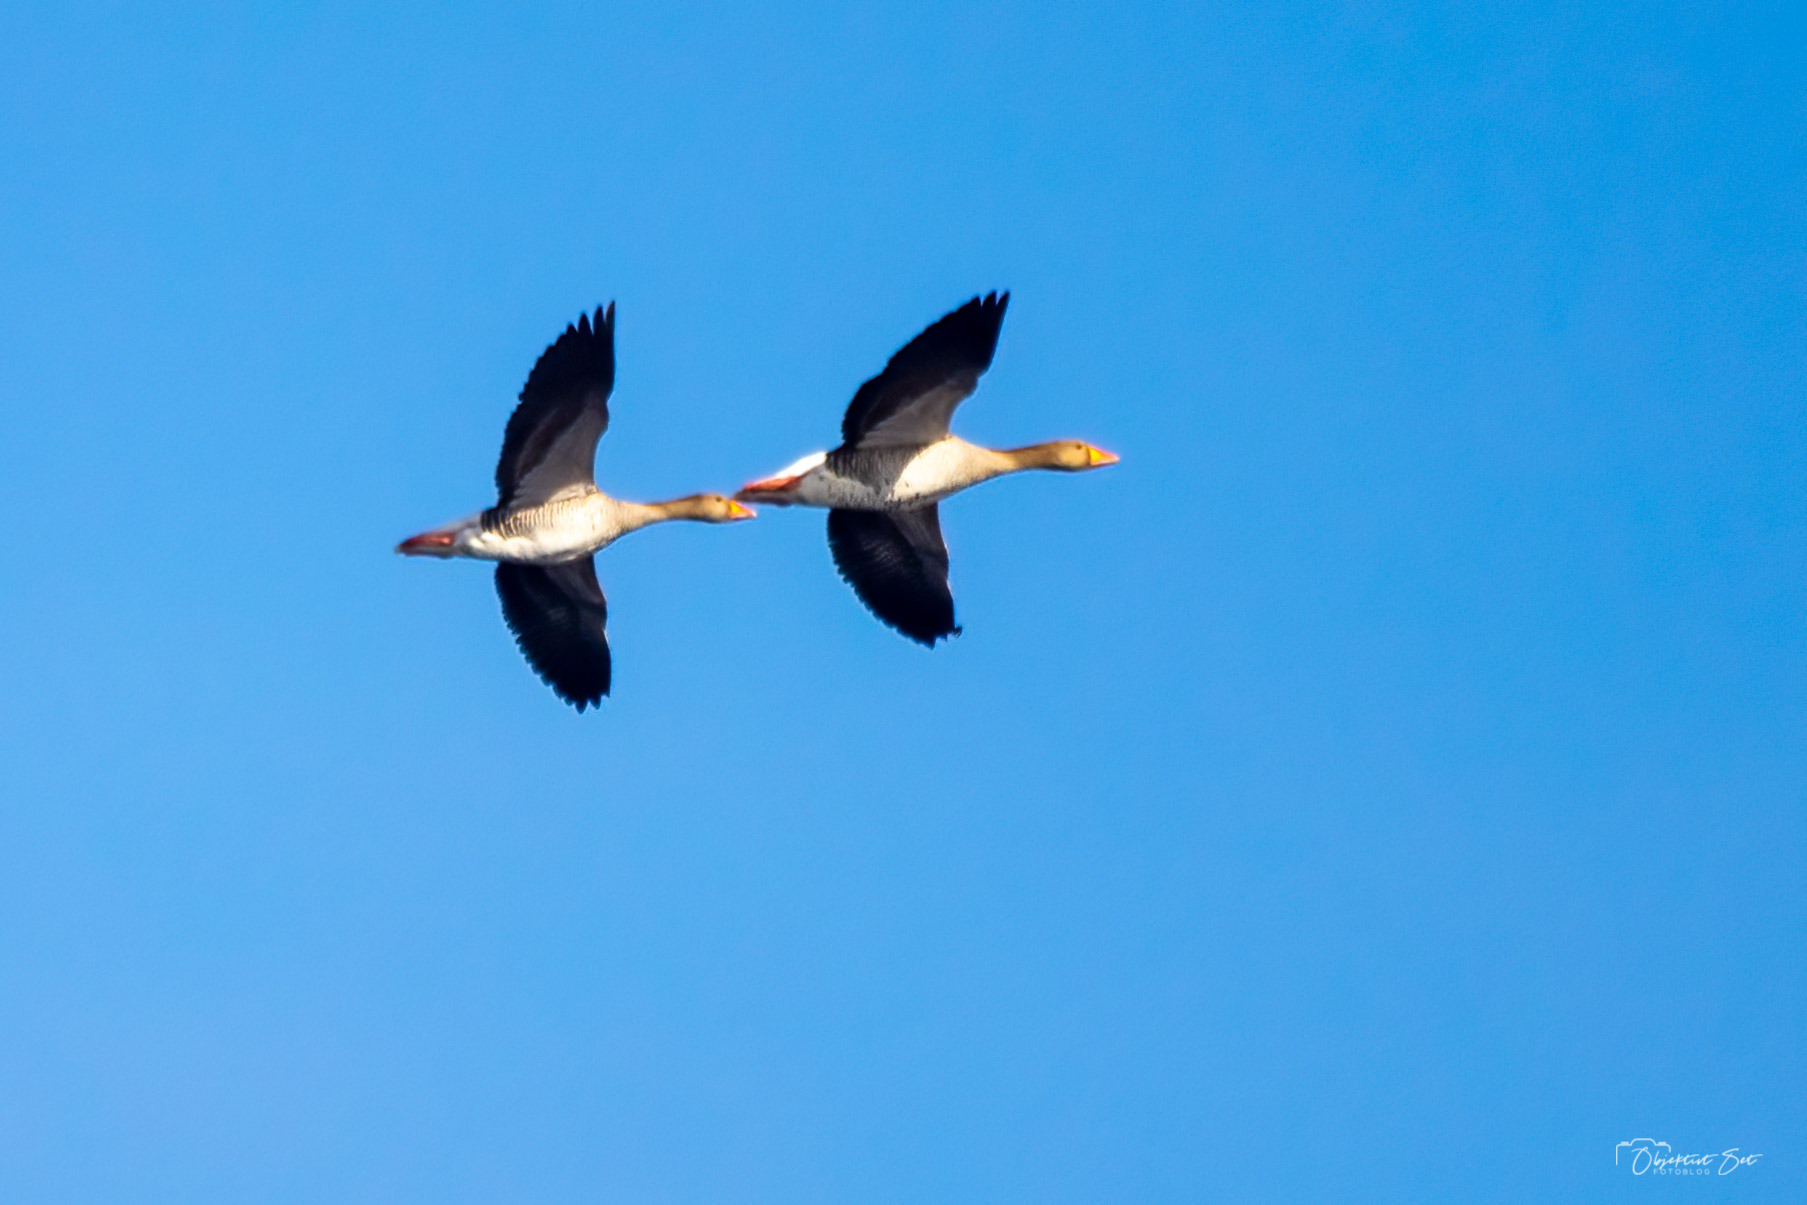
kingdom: Animalia
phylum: Chordata
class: Aves
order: Anseriformes
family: Anatidae
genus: Anser
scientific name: Anser anser
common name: Grågås
